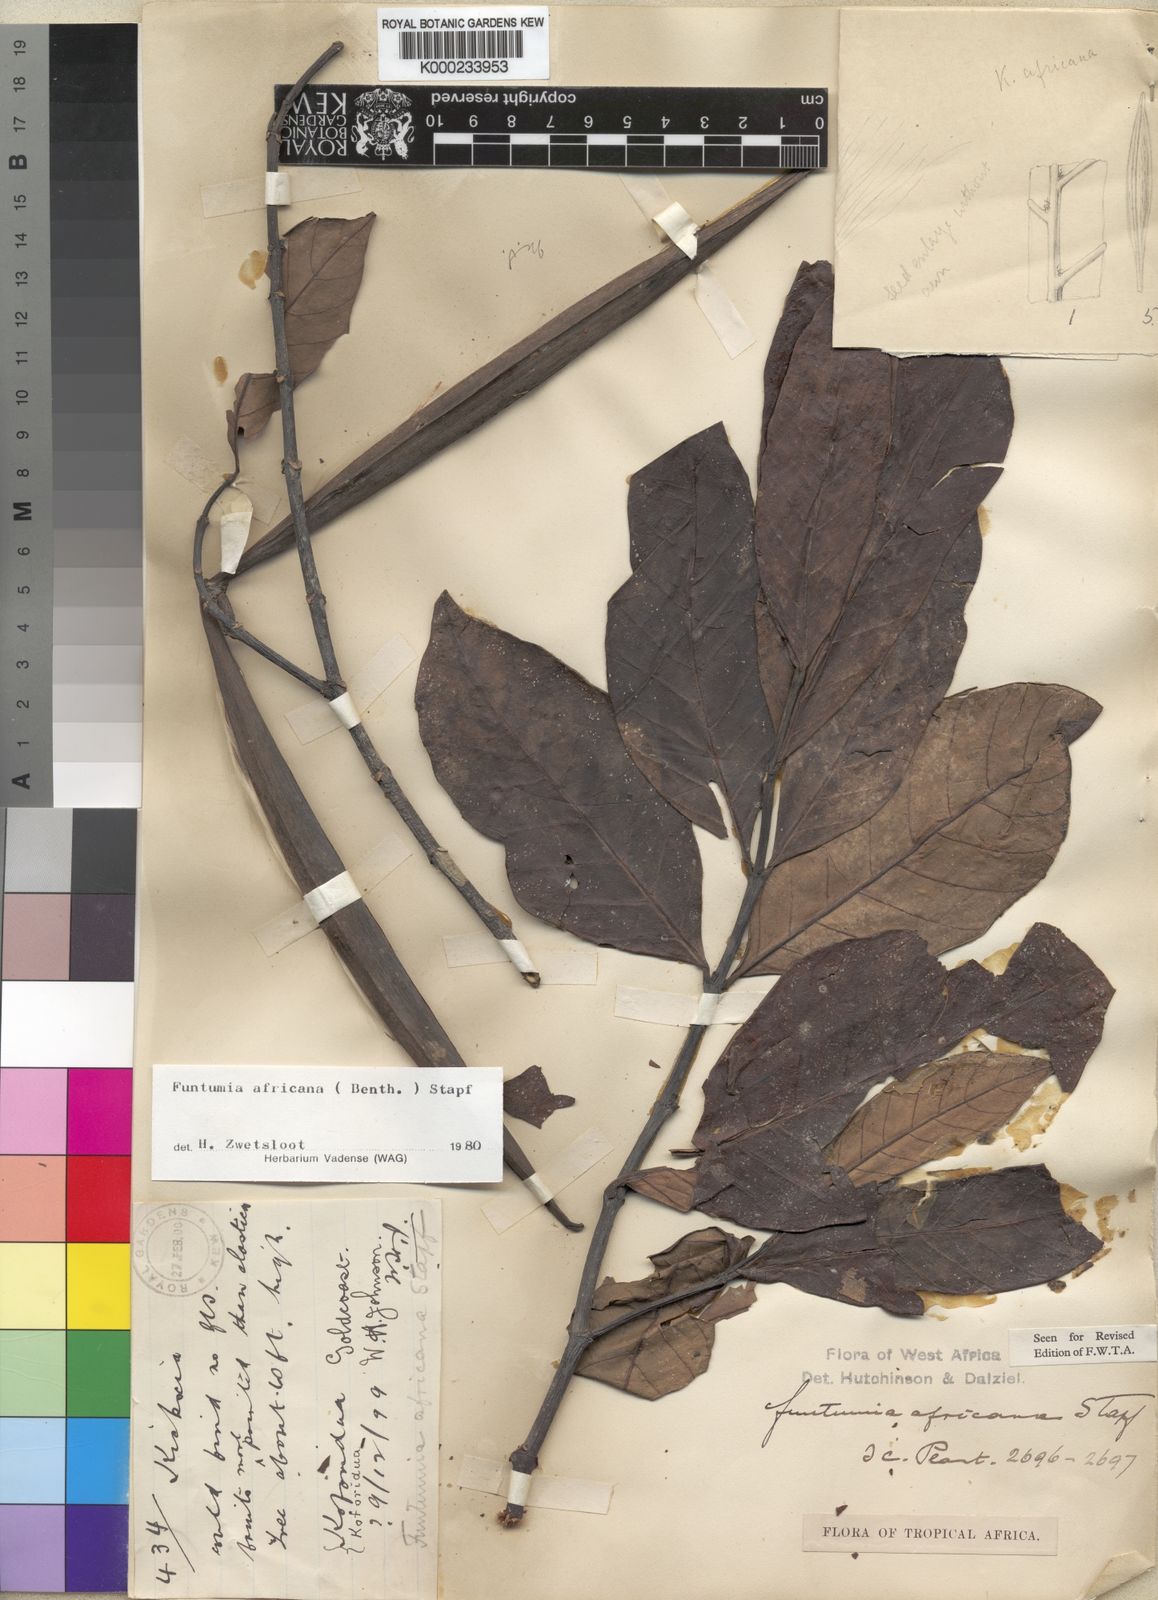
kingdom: Plantae
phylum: Tracheophyta
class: Magnoliopsida
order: Gentianales
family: Apocynaceae
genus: Funtumia
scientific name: Funtumia africana
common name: Lagos-rubber
